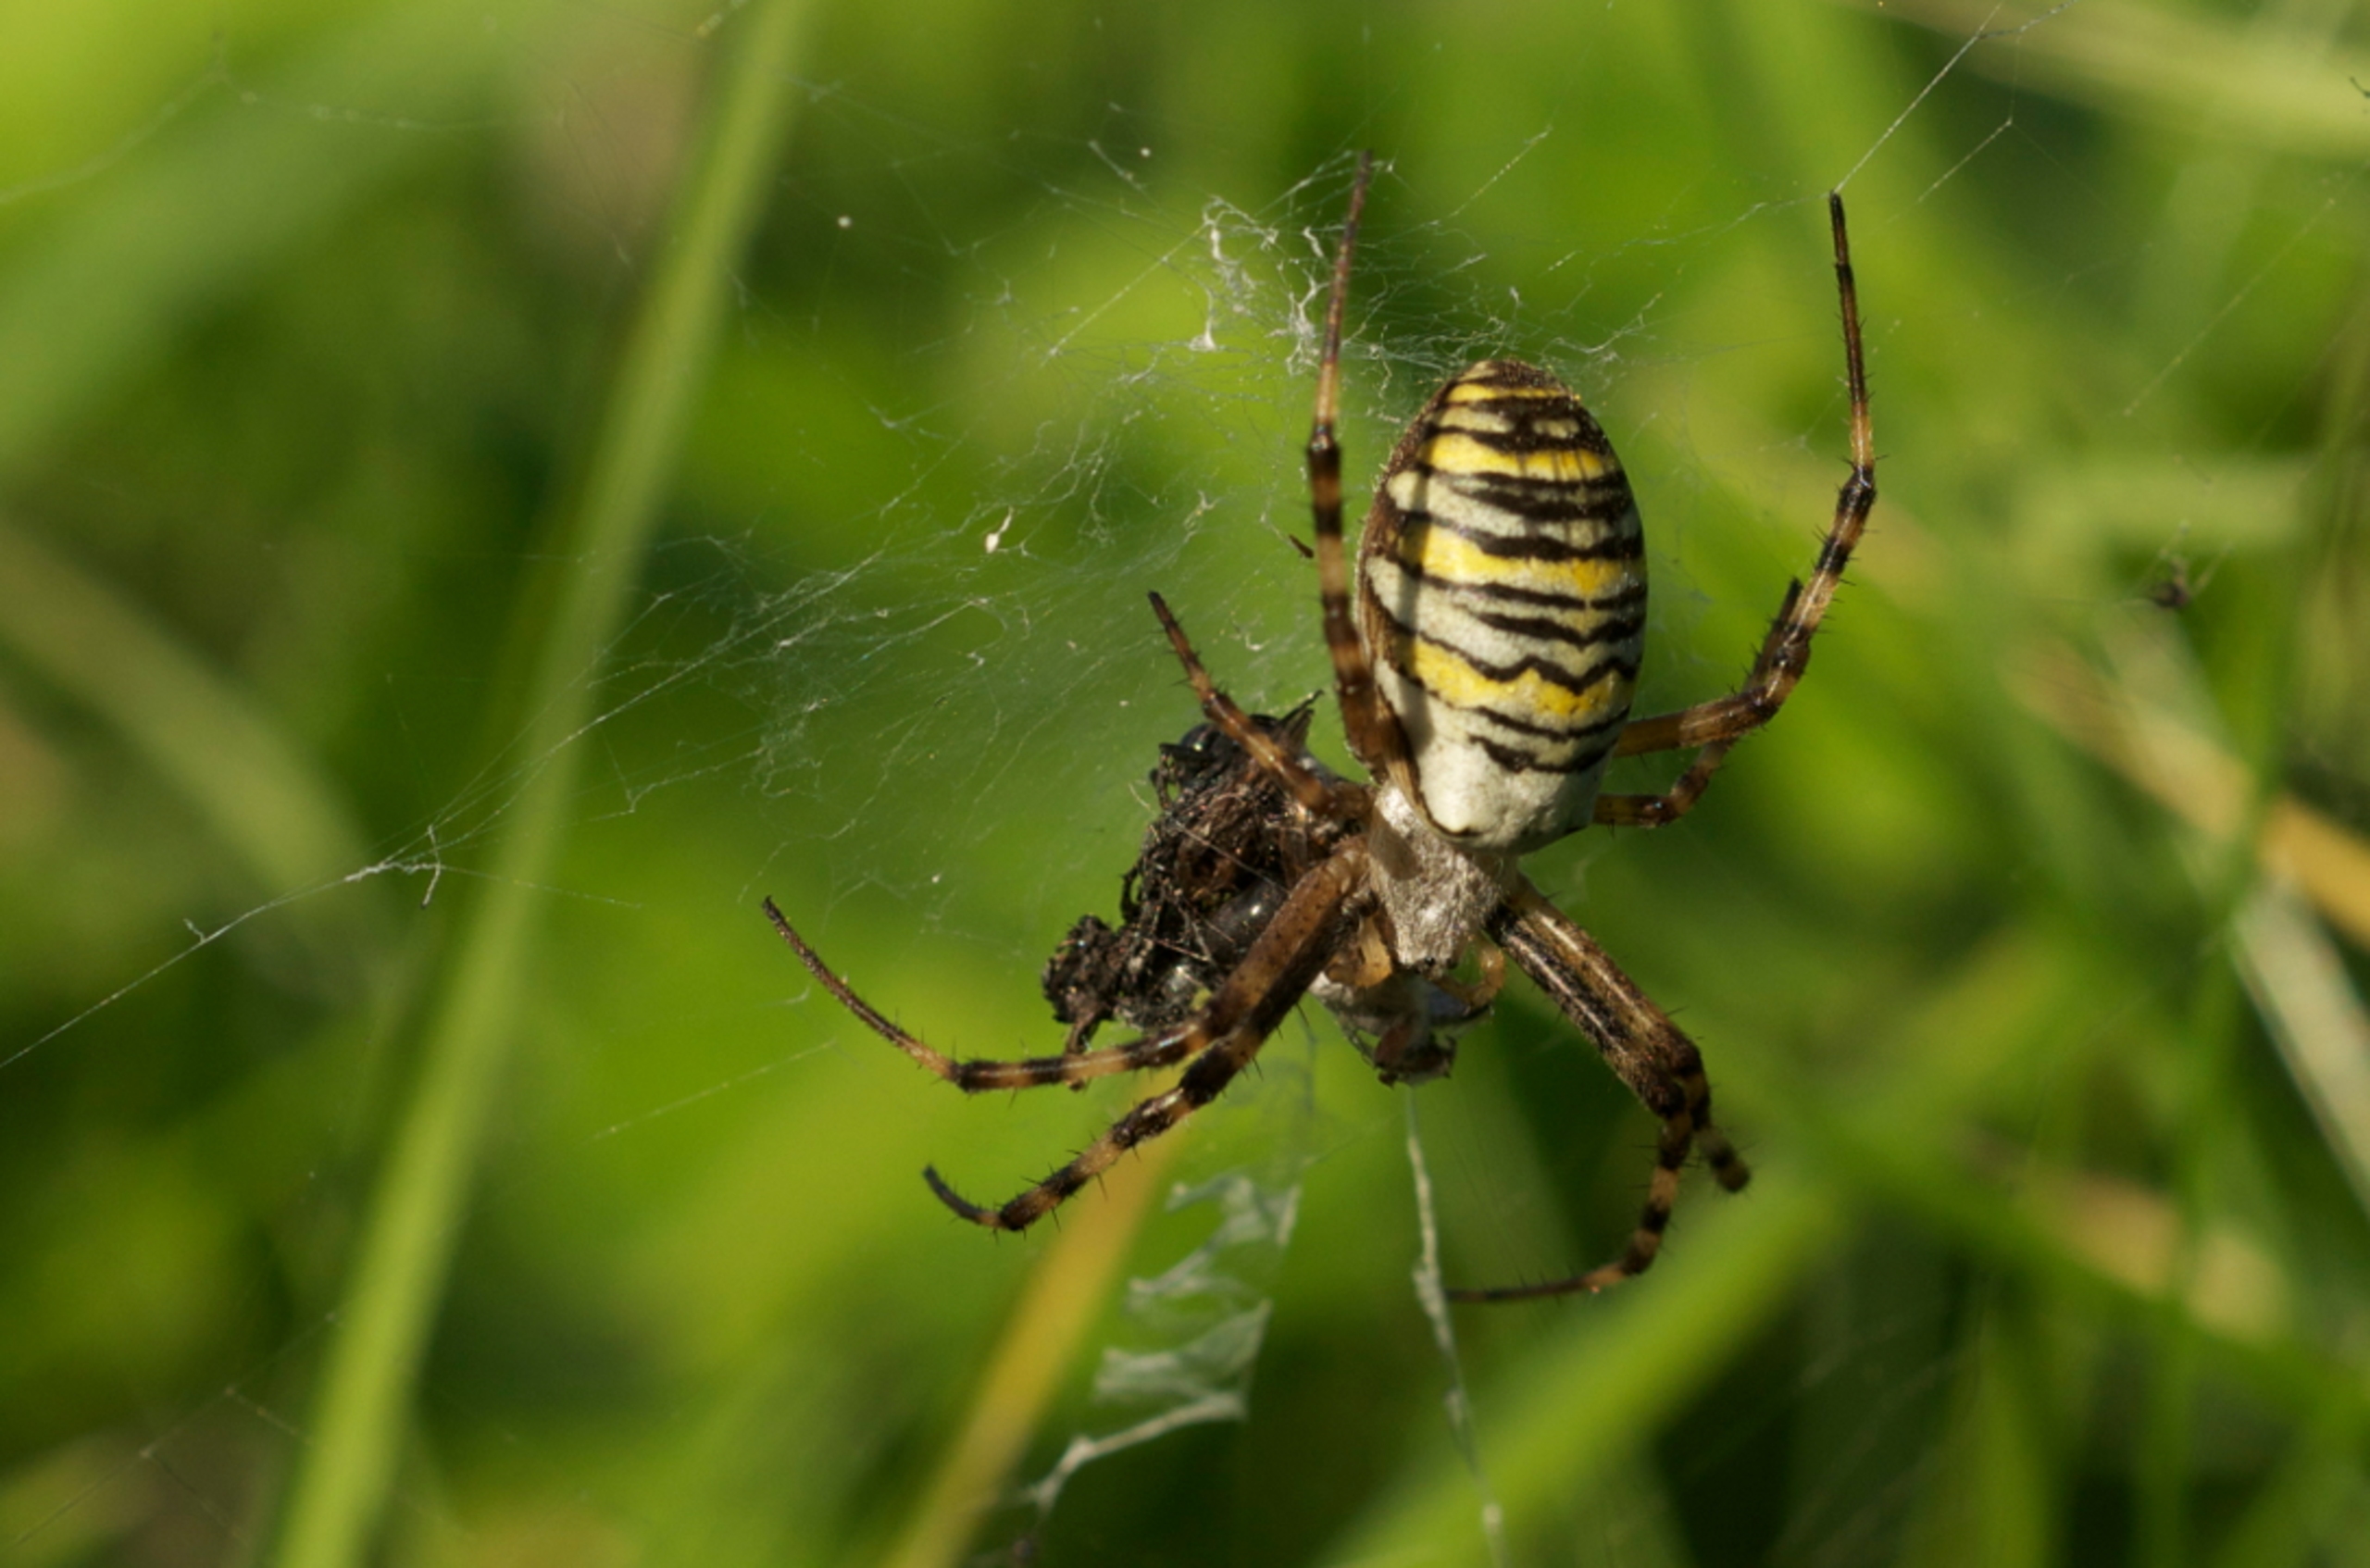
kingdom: Animalia
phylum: Arthropoda
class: Arachnida
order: Araneae
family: Araneidae
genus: Argiope
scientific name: Argiope bruennichi
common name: Hvepseedderkop
